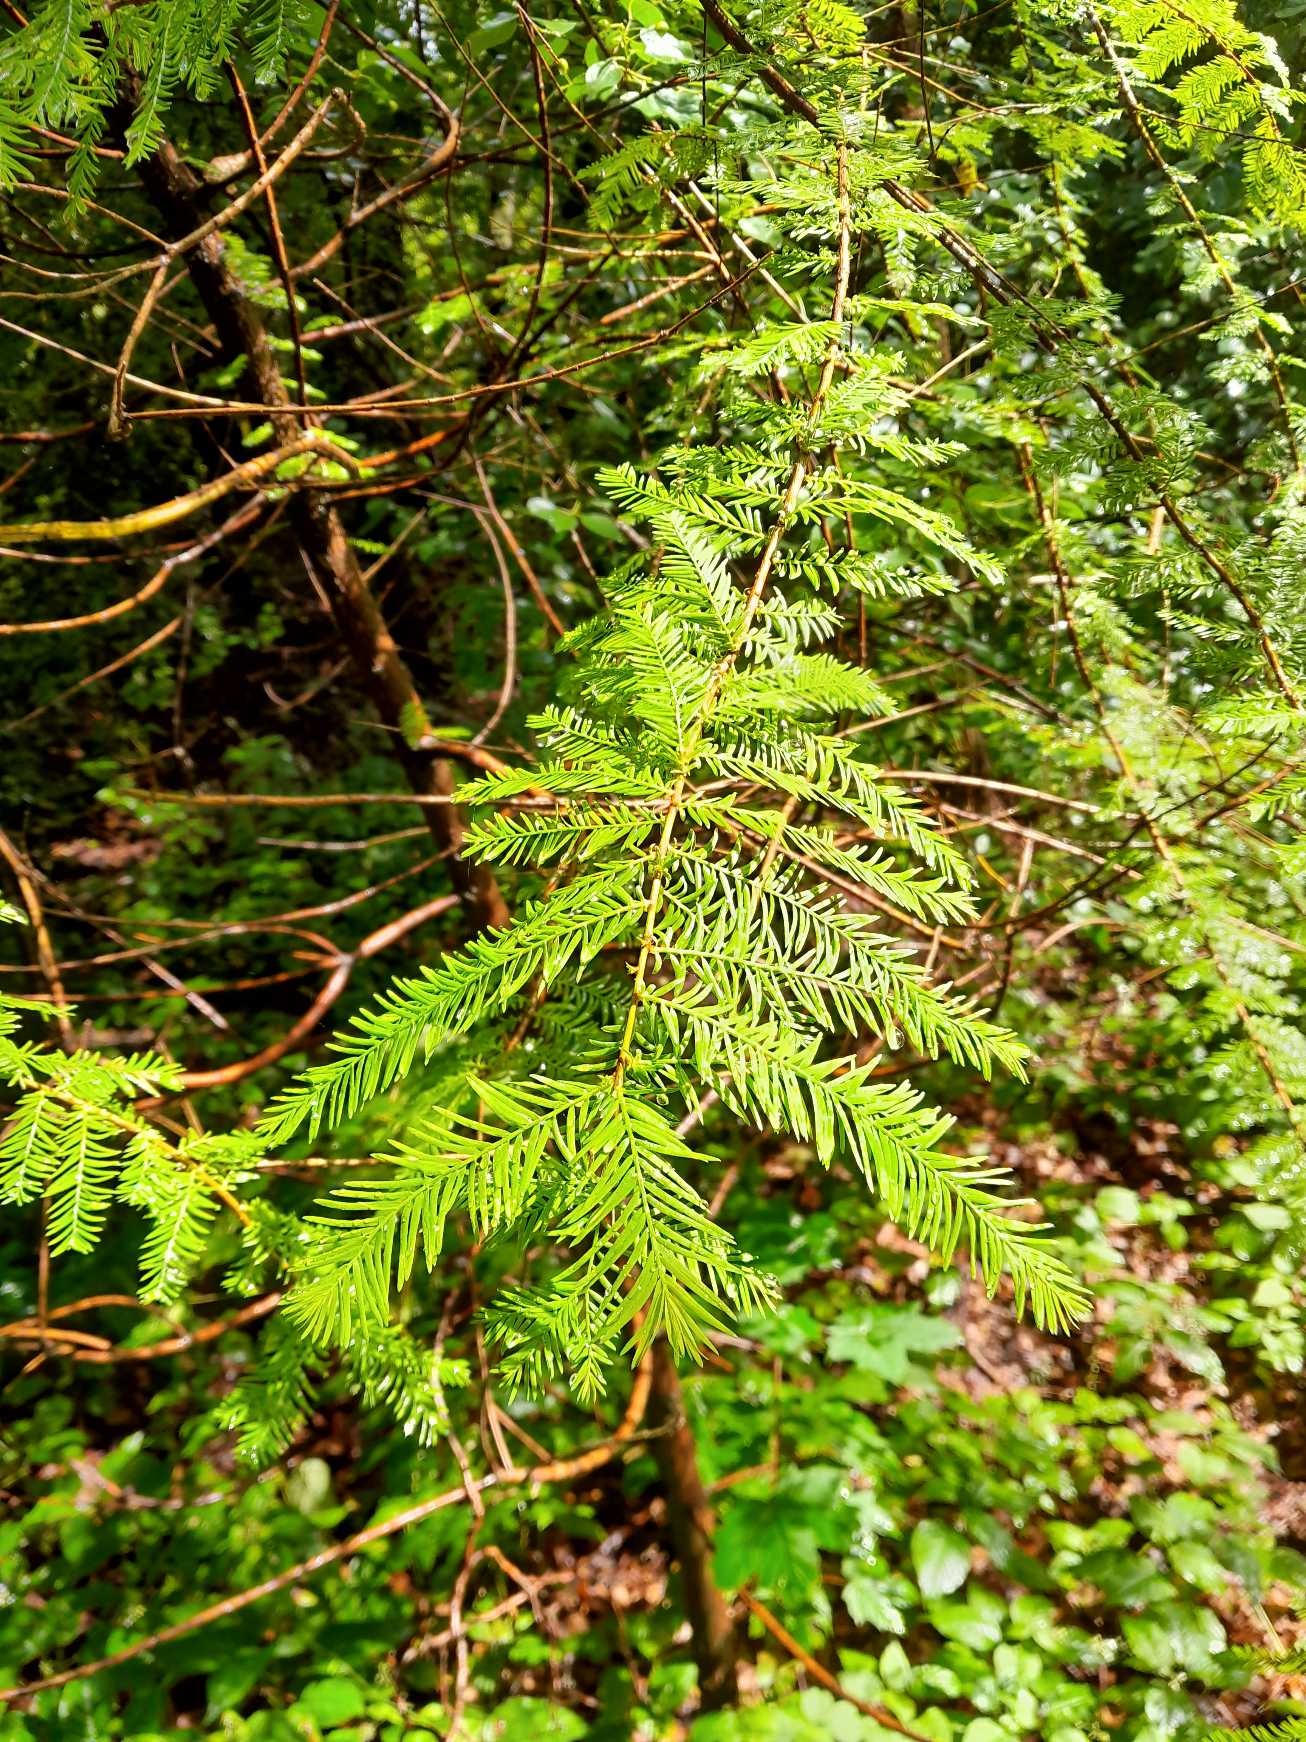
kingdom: Plantae
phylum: Tracheophyta
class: Pinopsida
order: Pinales
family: Cupressaceae
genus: Metasequoia
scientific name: Metasequoia glyptostroboides
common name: Vandgran
